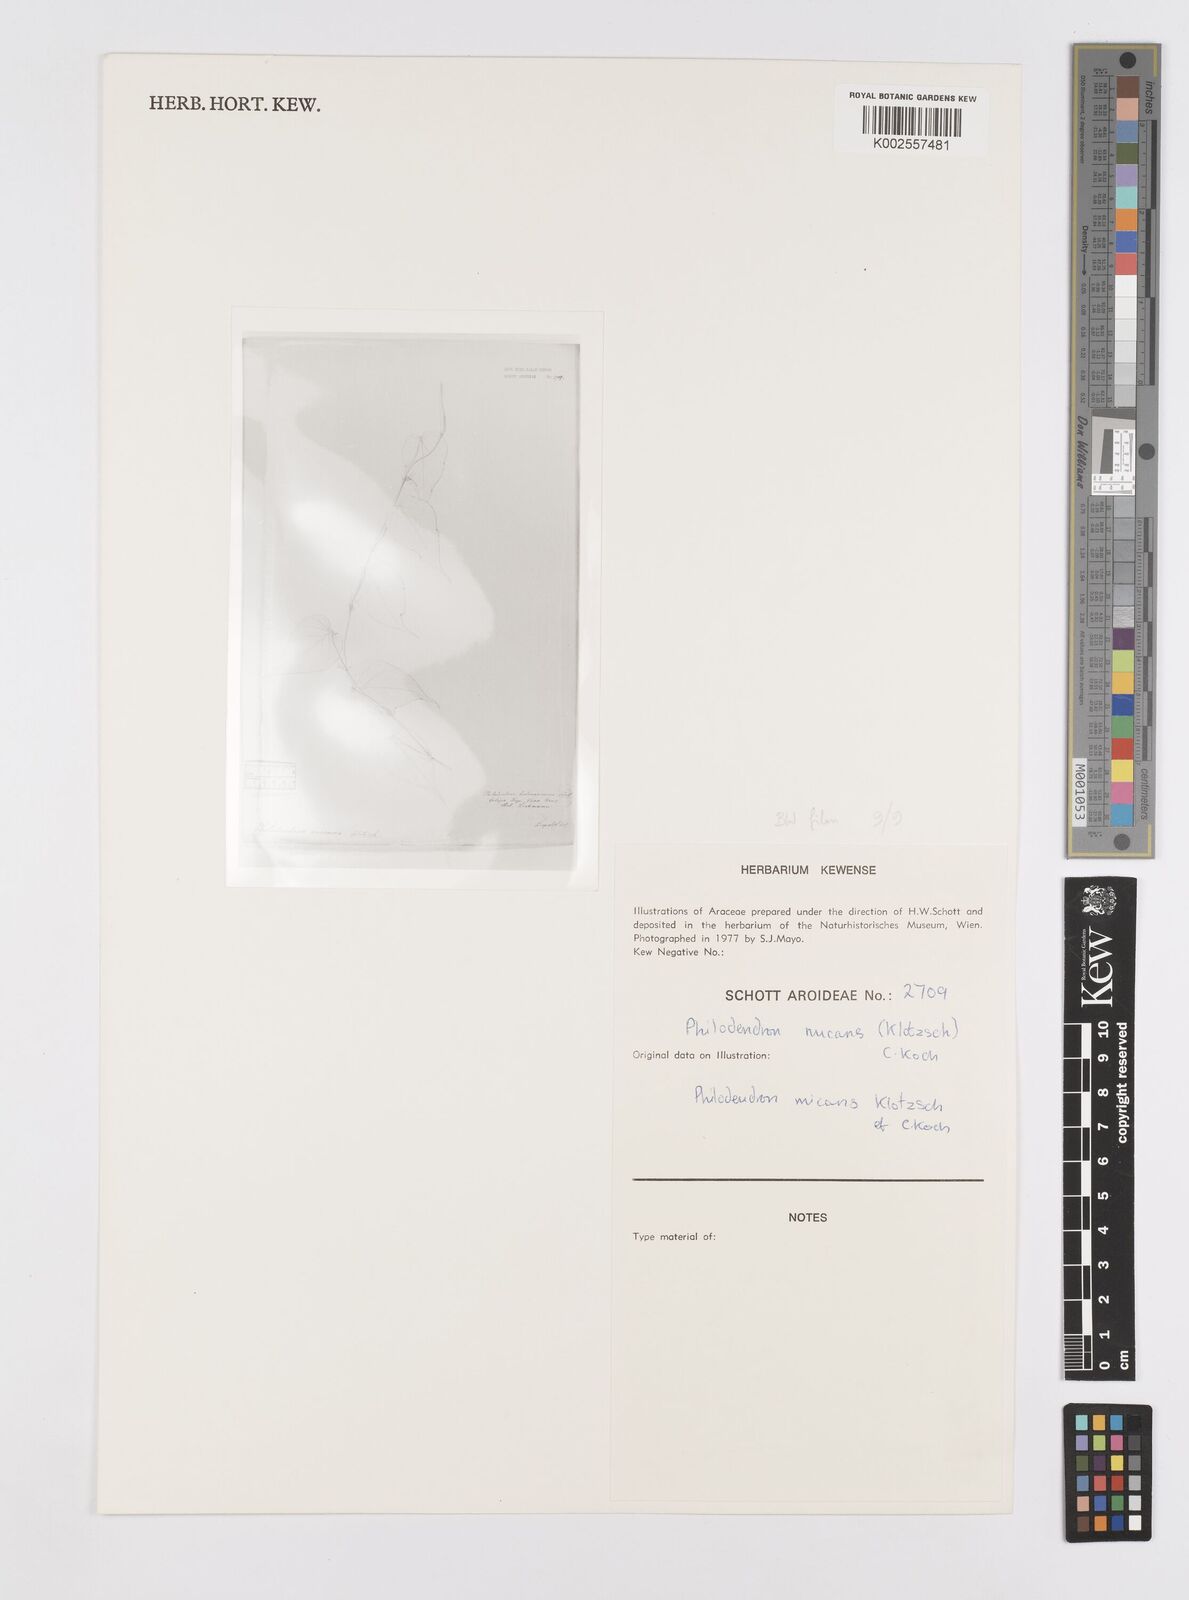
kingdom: Plantae
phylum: Tracheophyta
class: Liliopsida
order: Alismatales
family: Araceae
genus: Philodendron
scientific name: Philodendron hederaceum
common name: Vilevine
